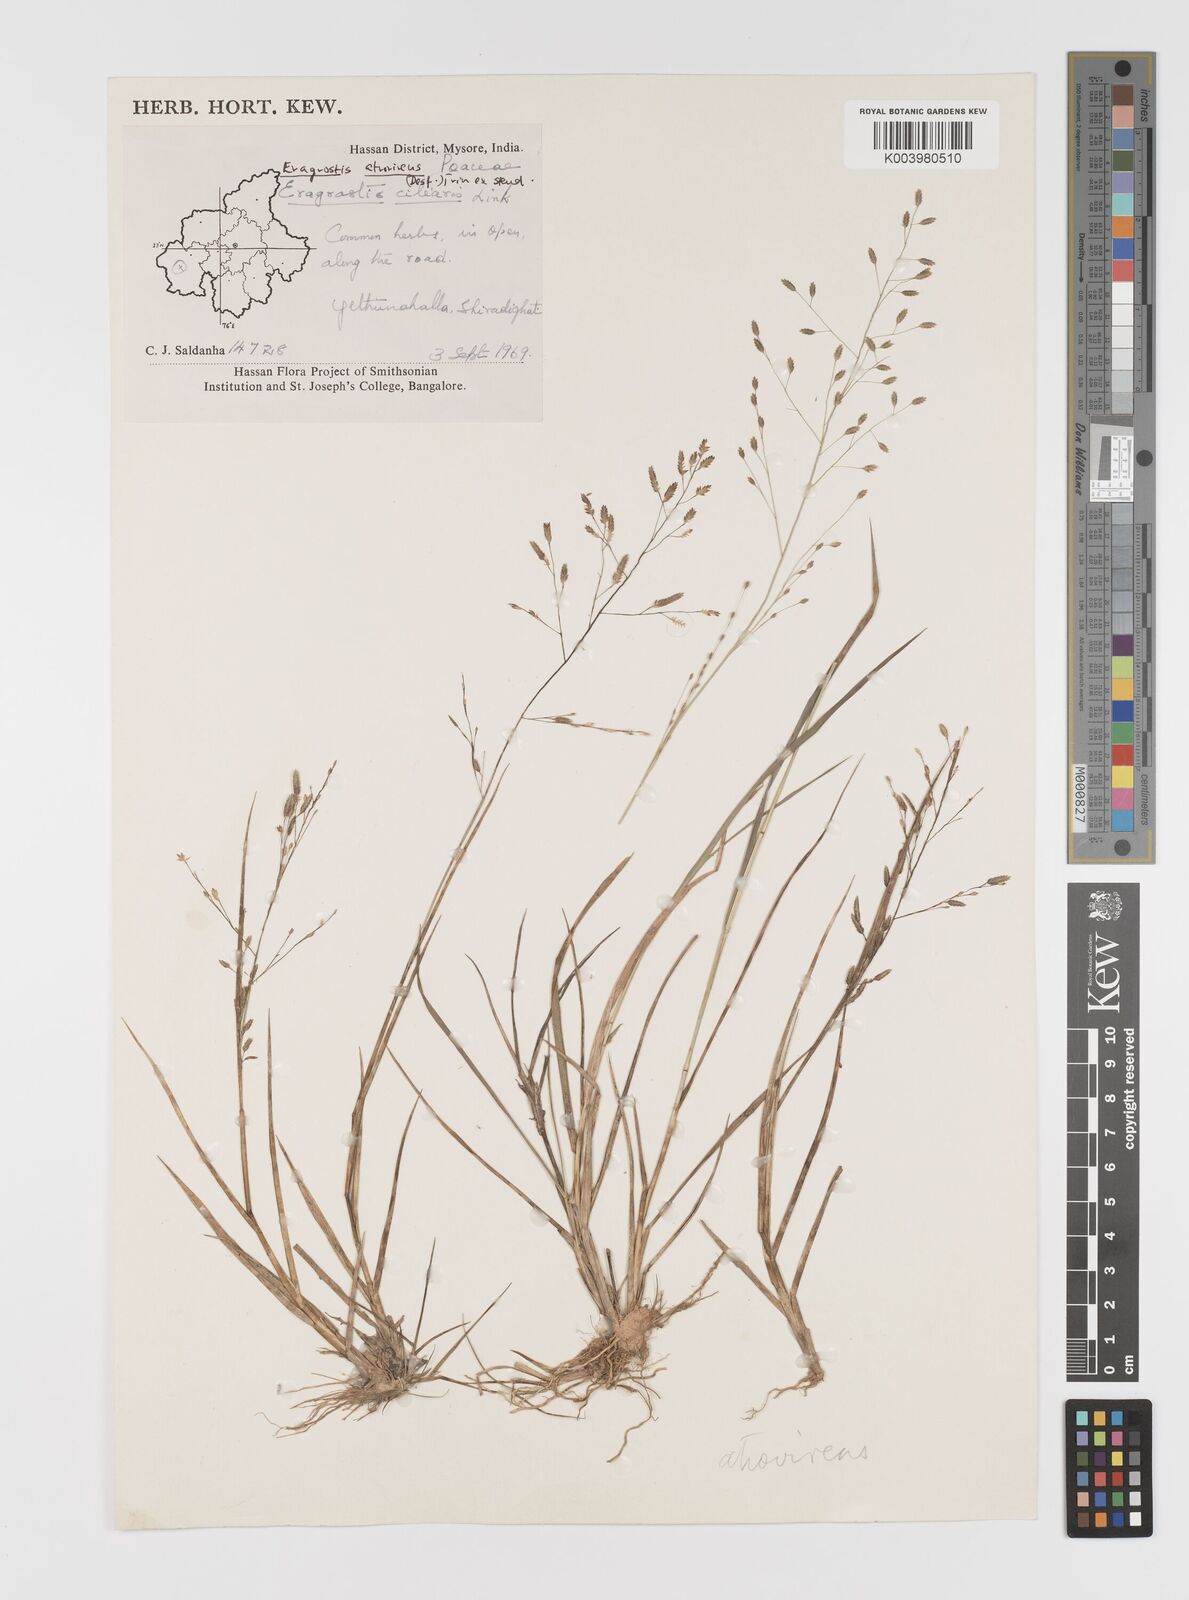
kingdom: Plantae
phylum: Tracheophyta
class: Liliopsida
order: Poales
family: Poaceae
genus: Eragrostis
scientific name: Eragrostis
